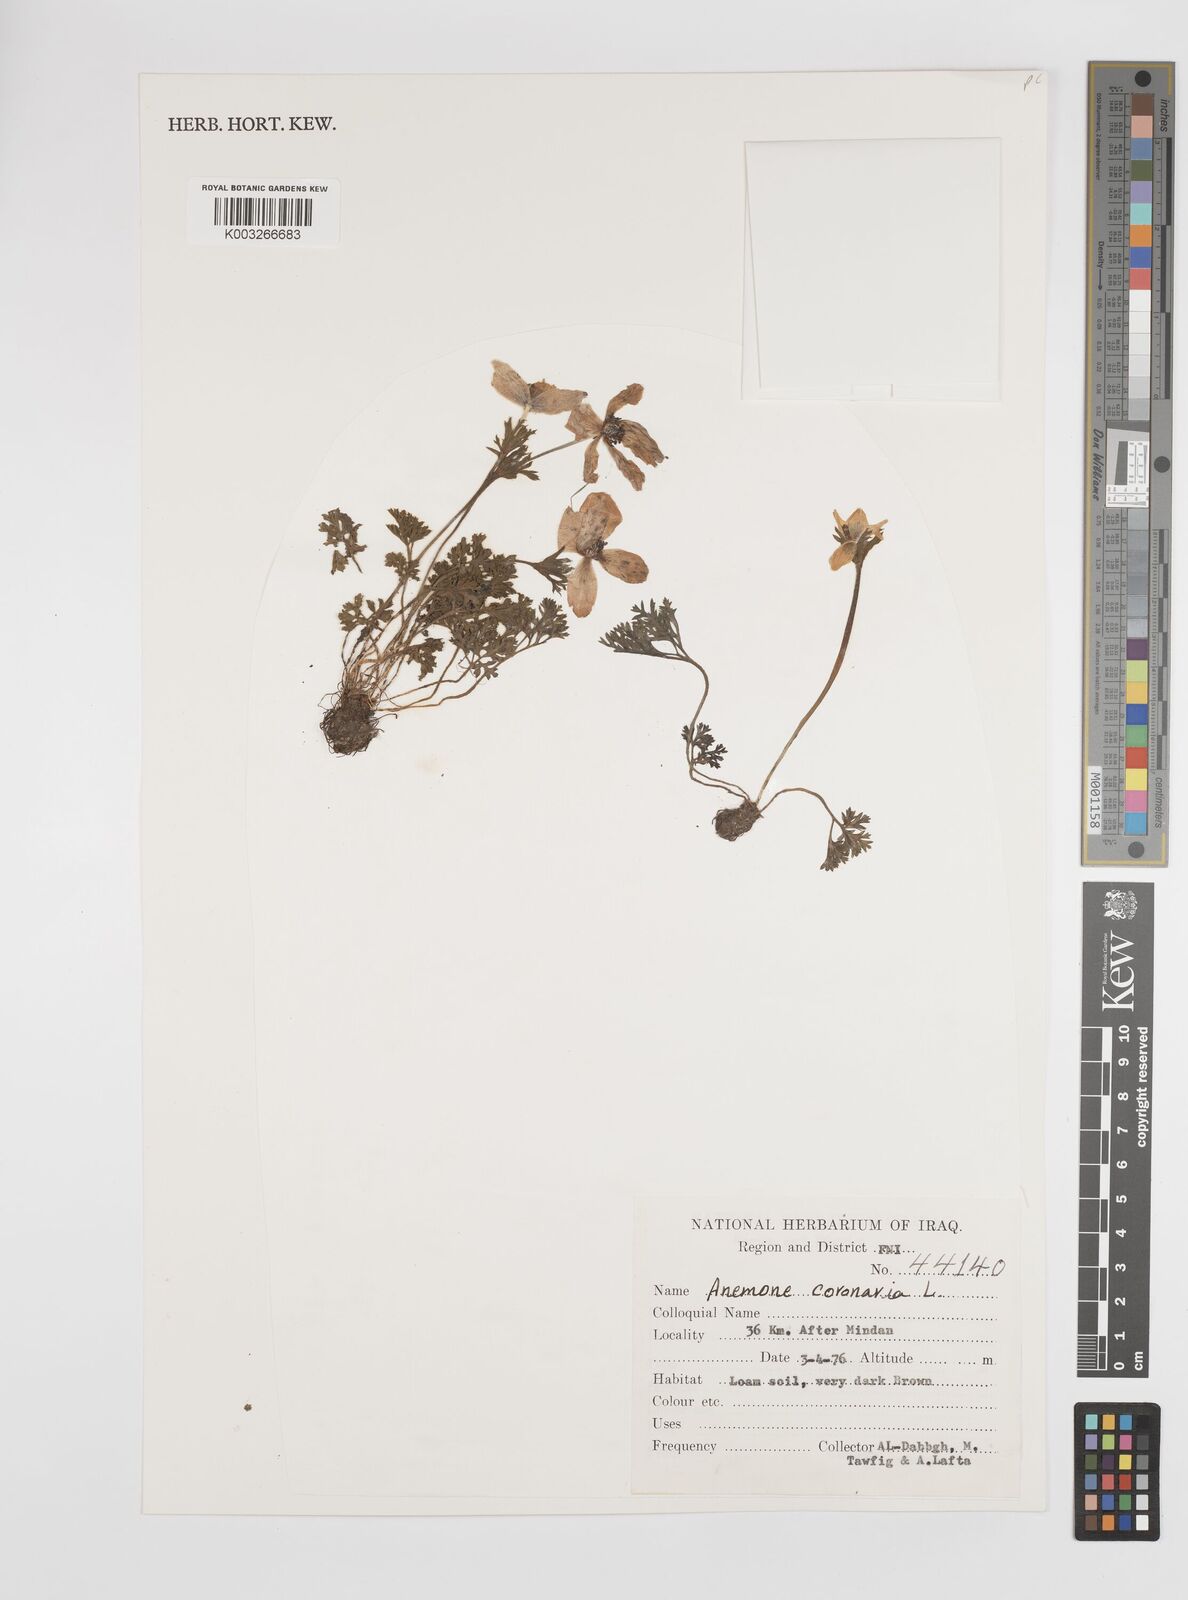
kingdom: Plantae
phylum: Tracheophyta
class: Magnoliopsida
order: Ranunculales
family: Ranunculaceae
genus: Anemone
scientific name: Anemone coronaria
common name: Poppy anemone
